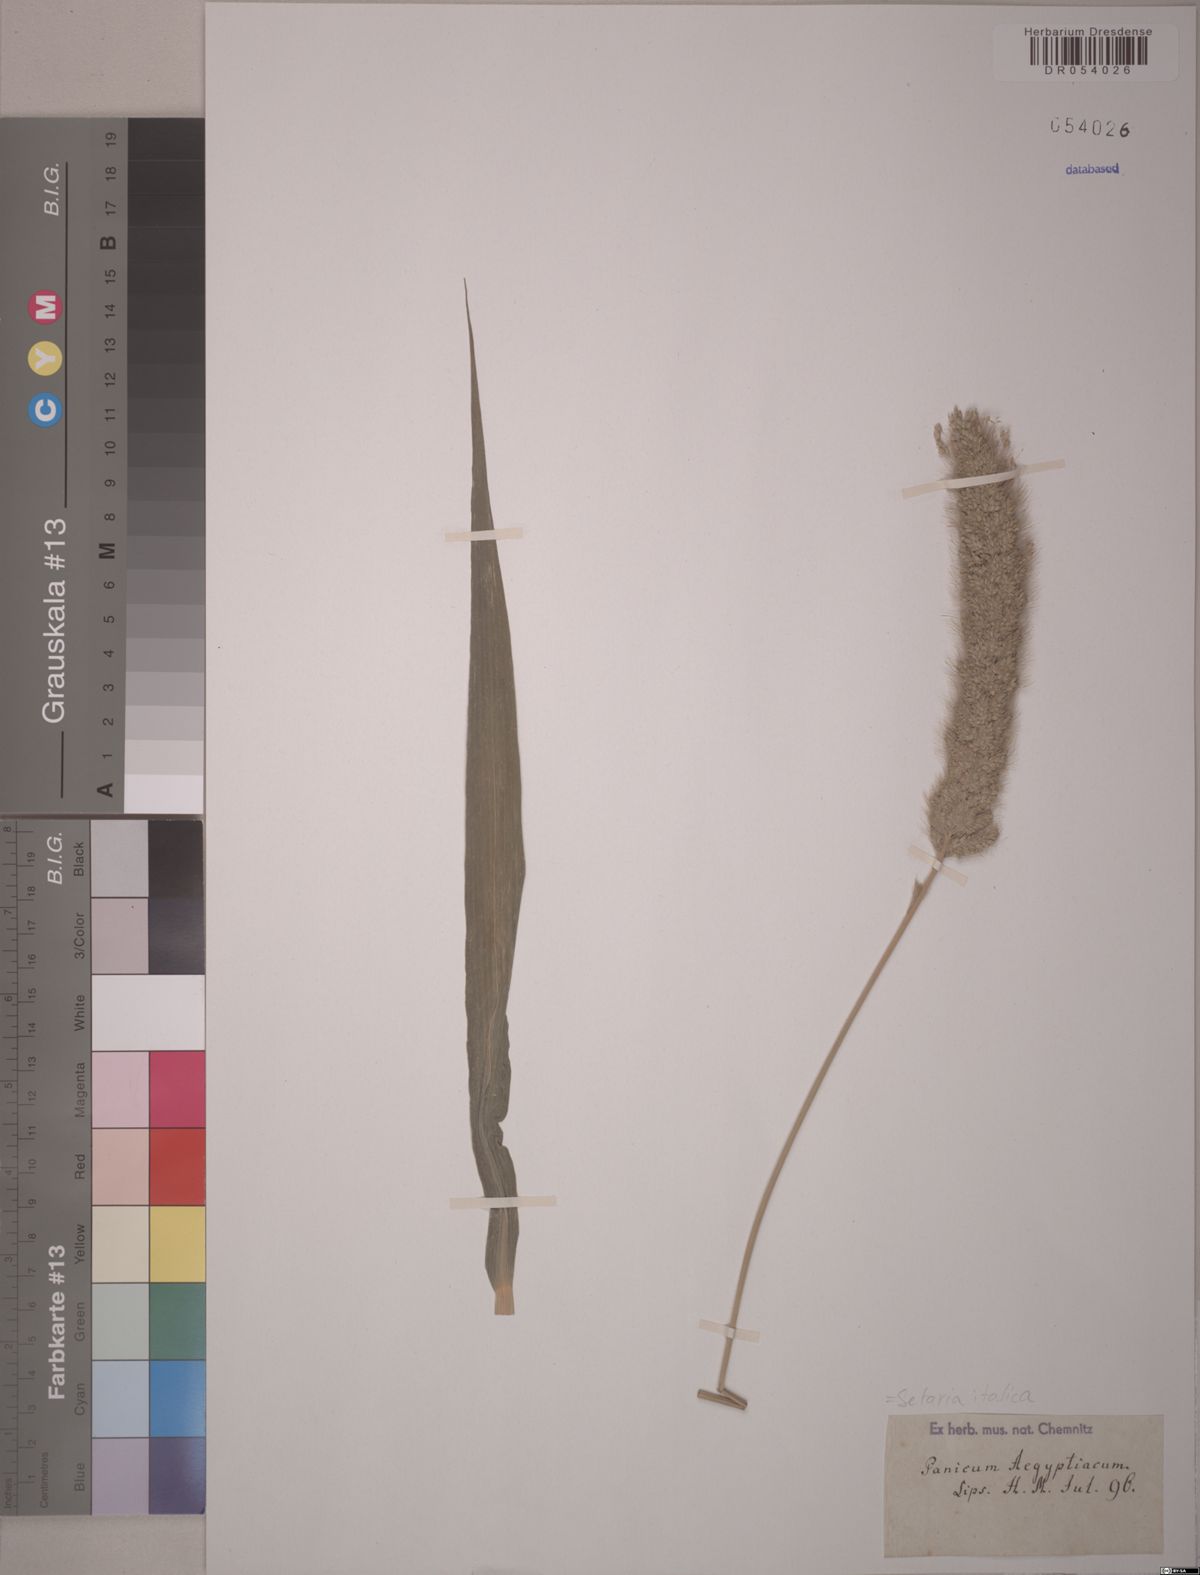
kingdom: Plantae
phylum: Tracheophyta
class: Liliopsida
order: Poales
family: Poaceae
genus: Setaria
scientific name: Setaria italica
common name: Foxtail bristle-grass
